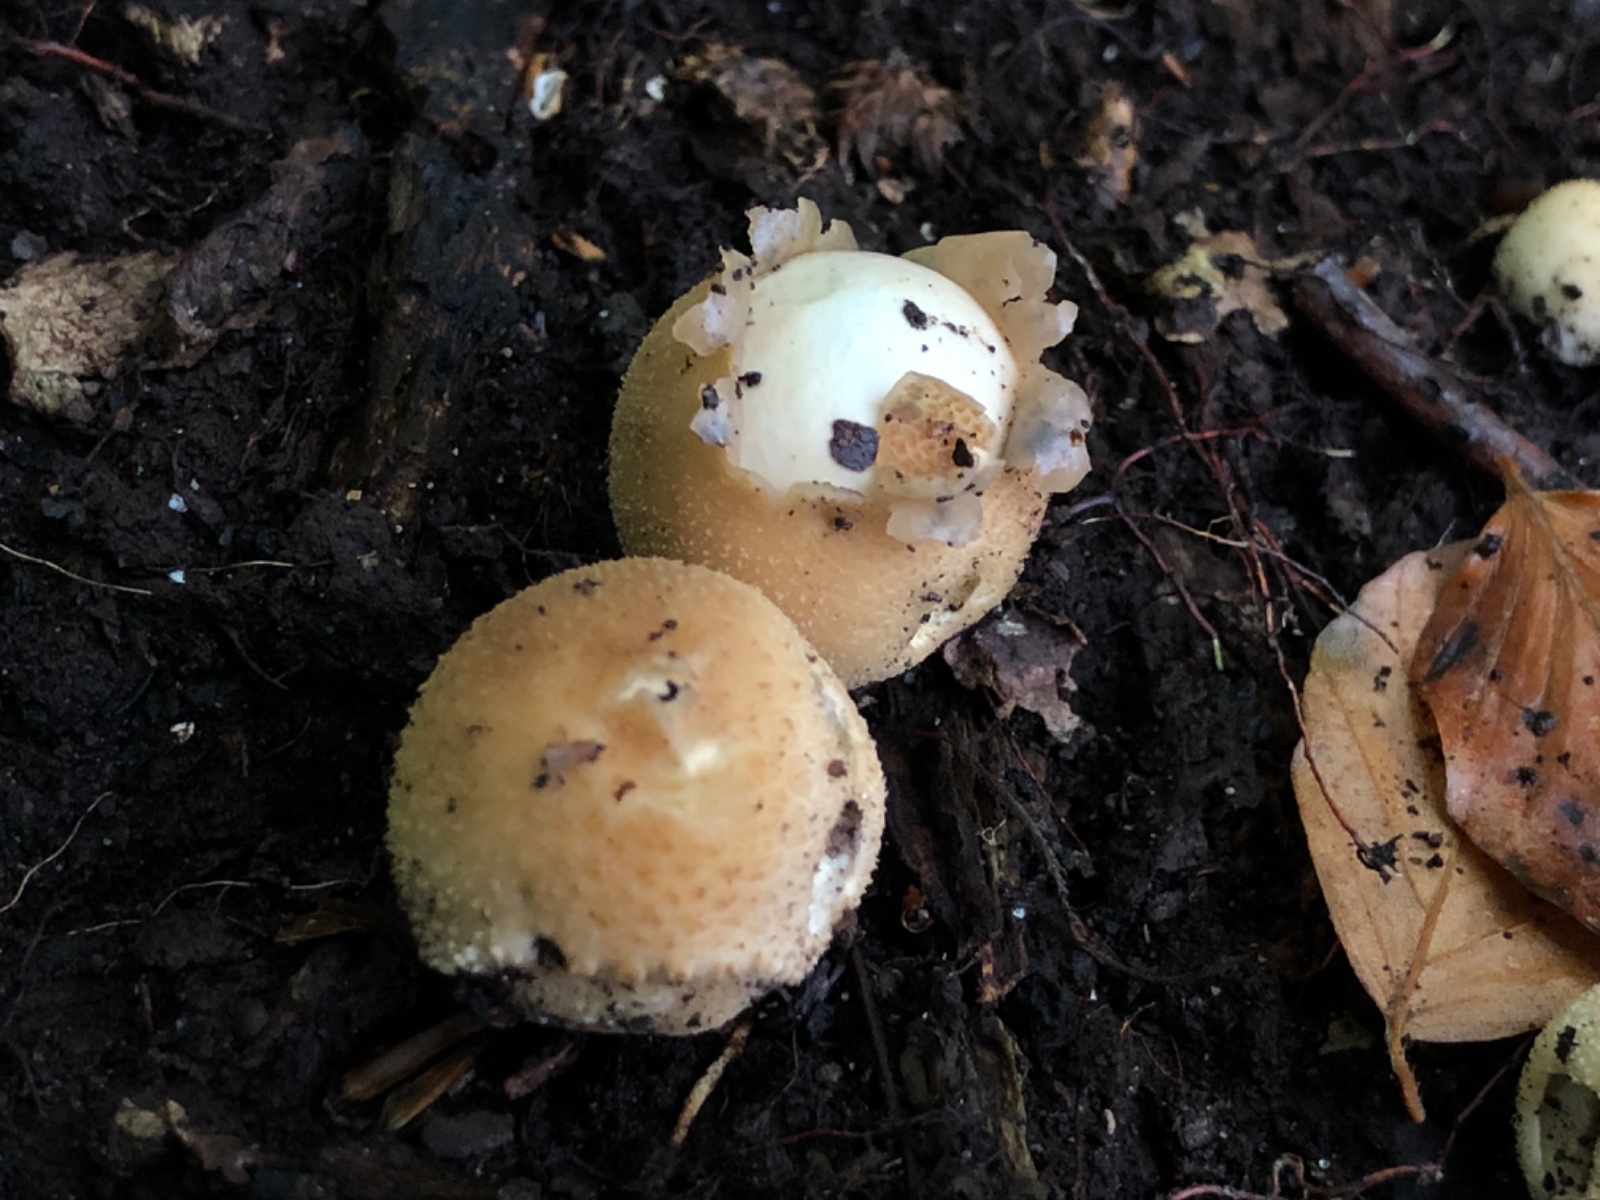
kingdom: Fungi
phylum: Basidiomycota
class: Agaricomycetes
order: Agaricales
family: Lycoperdaceae
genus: Apioperdon
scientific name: Apioperdon pyriforme
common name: pære-støvbold
